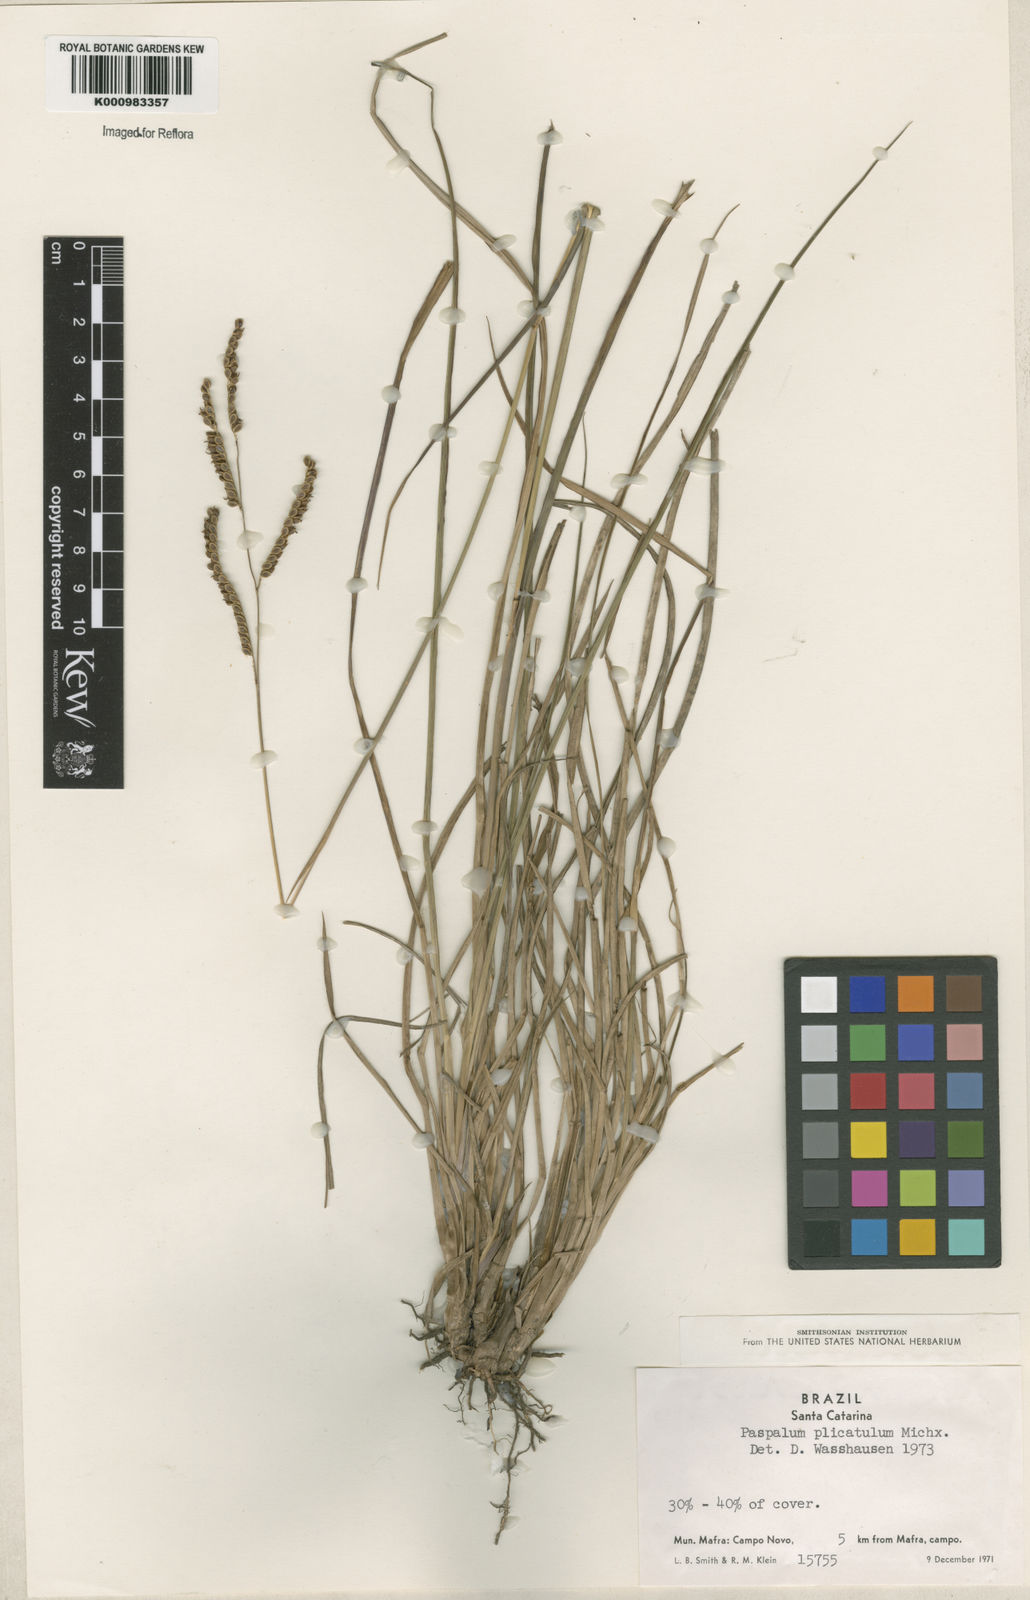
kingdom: Plantae
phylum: Tracheophyta
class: Liliopsida
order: Poales
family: Poaceae
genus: Paspalum
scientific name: Paspalum plicatulum
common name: Top paspalum
